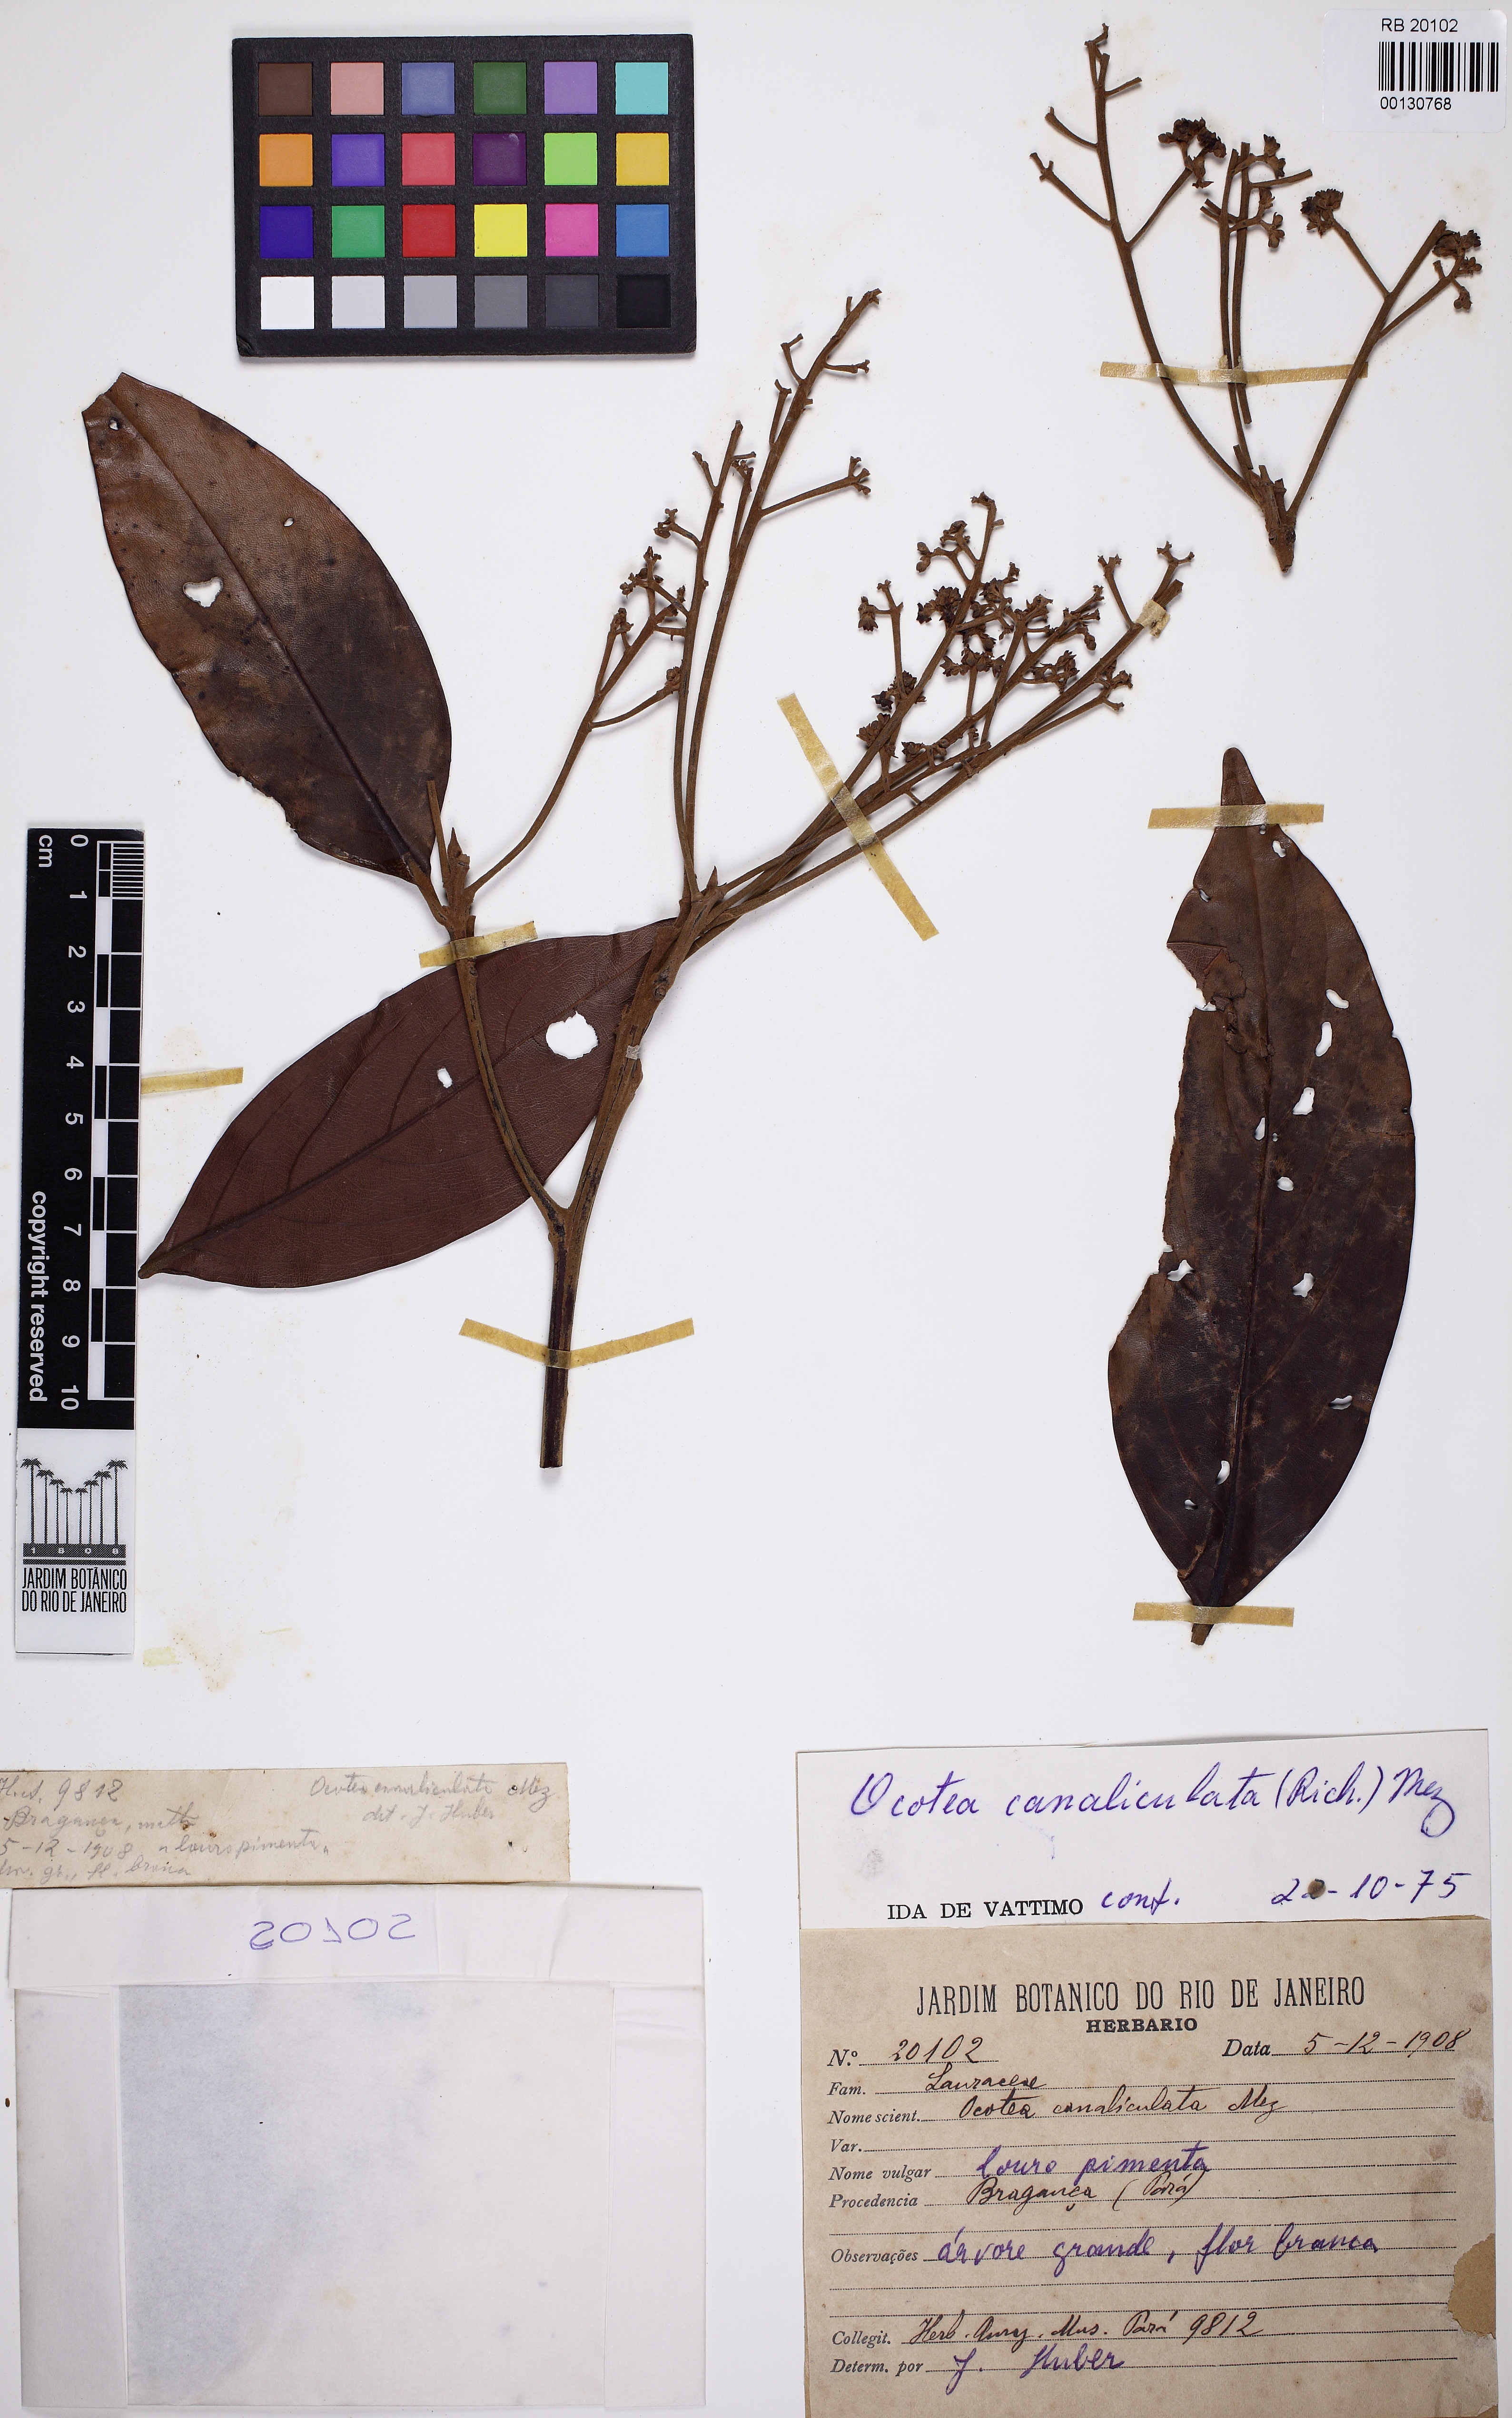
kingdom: Plantae
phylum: Tracheophyta
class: Magnoliopsida
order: Laurales
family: Lauraceae
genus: Ocotea
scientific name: Ocotea canaliculata
